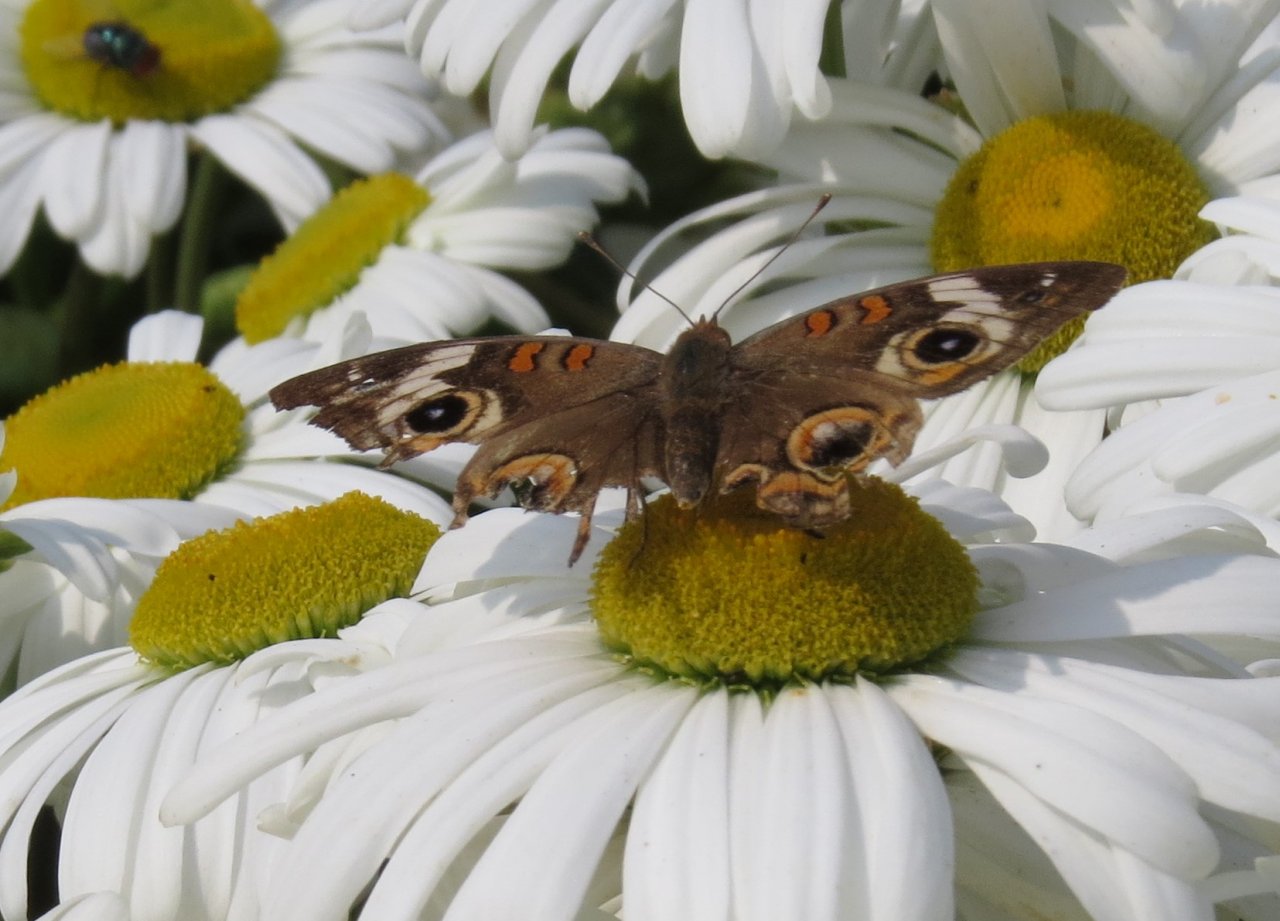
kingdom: Animalia
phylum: Arthropoda
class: Insecta
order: Lepidoptera
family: Nymphalidae
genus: Junonia
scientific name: Junonia coenia
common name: Common Buckeye
